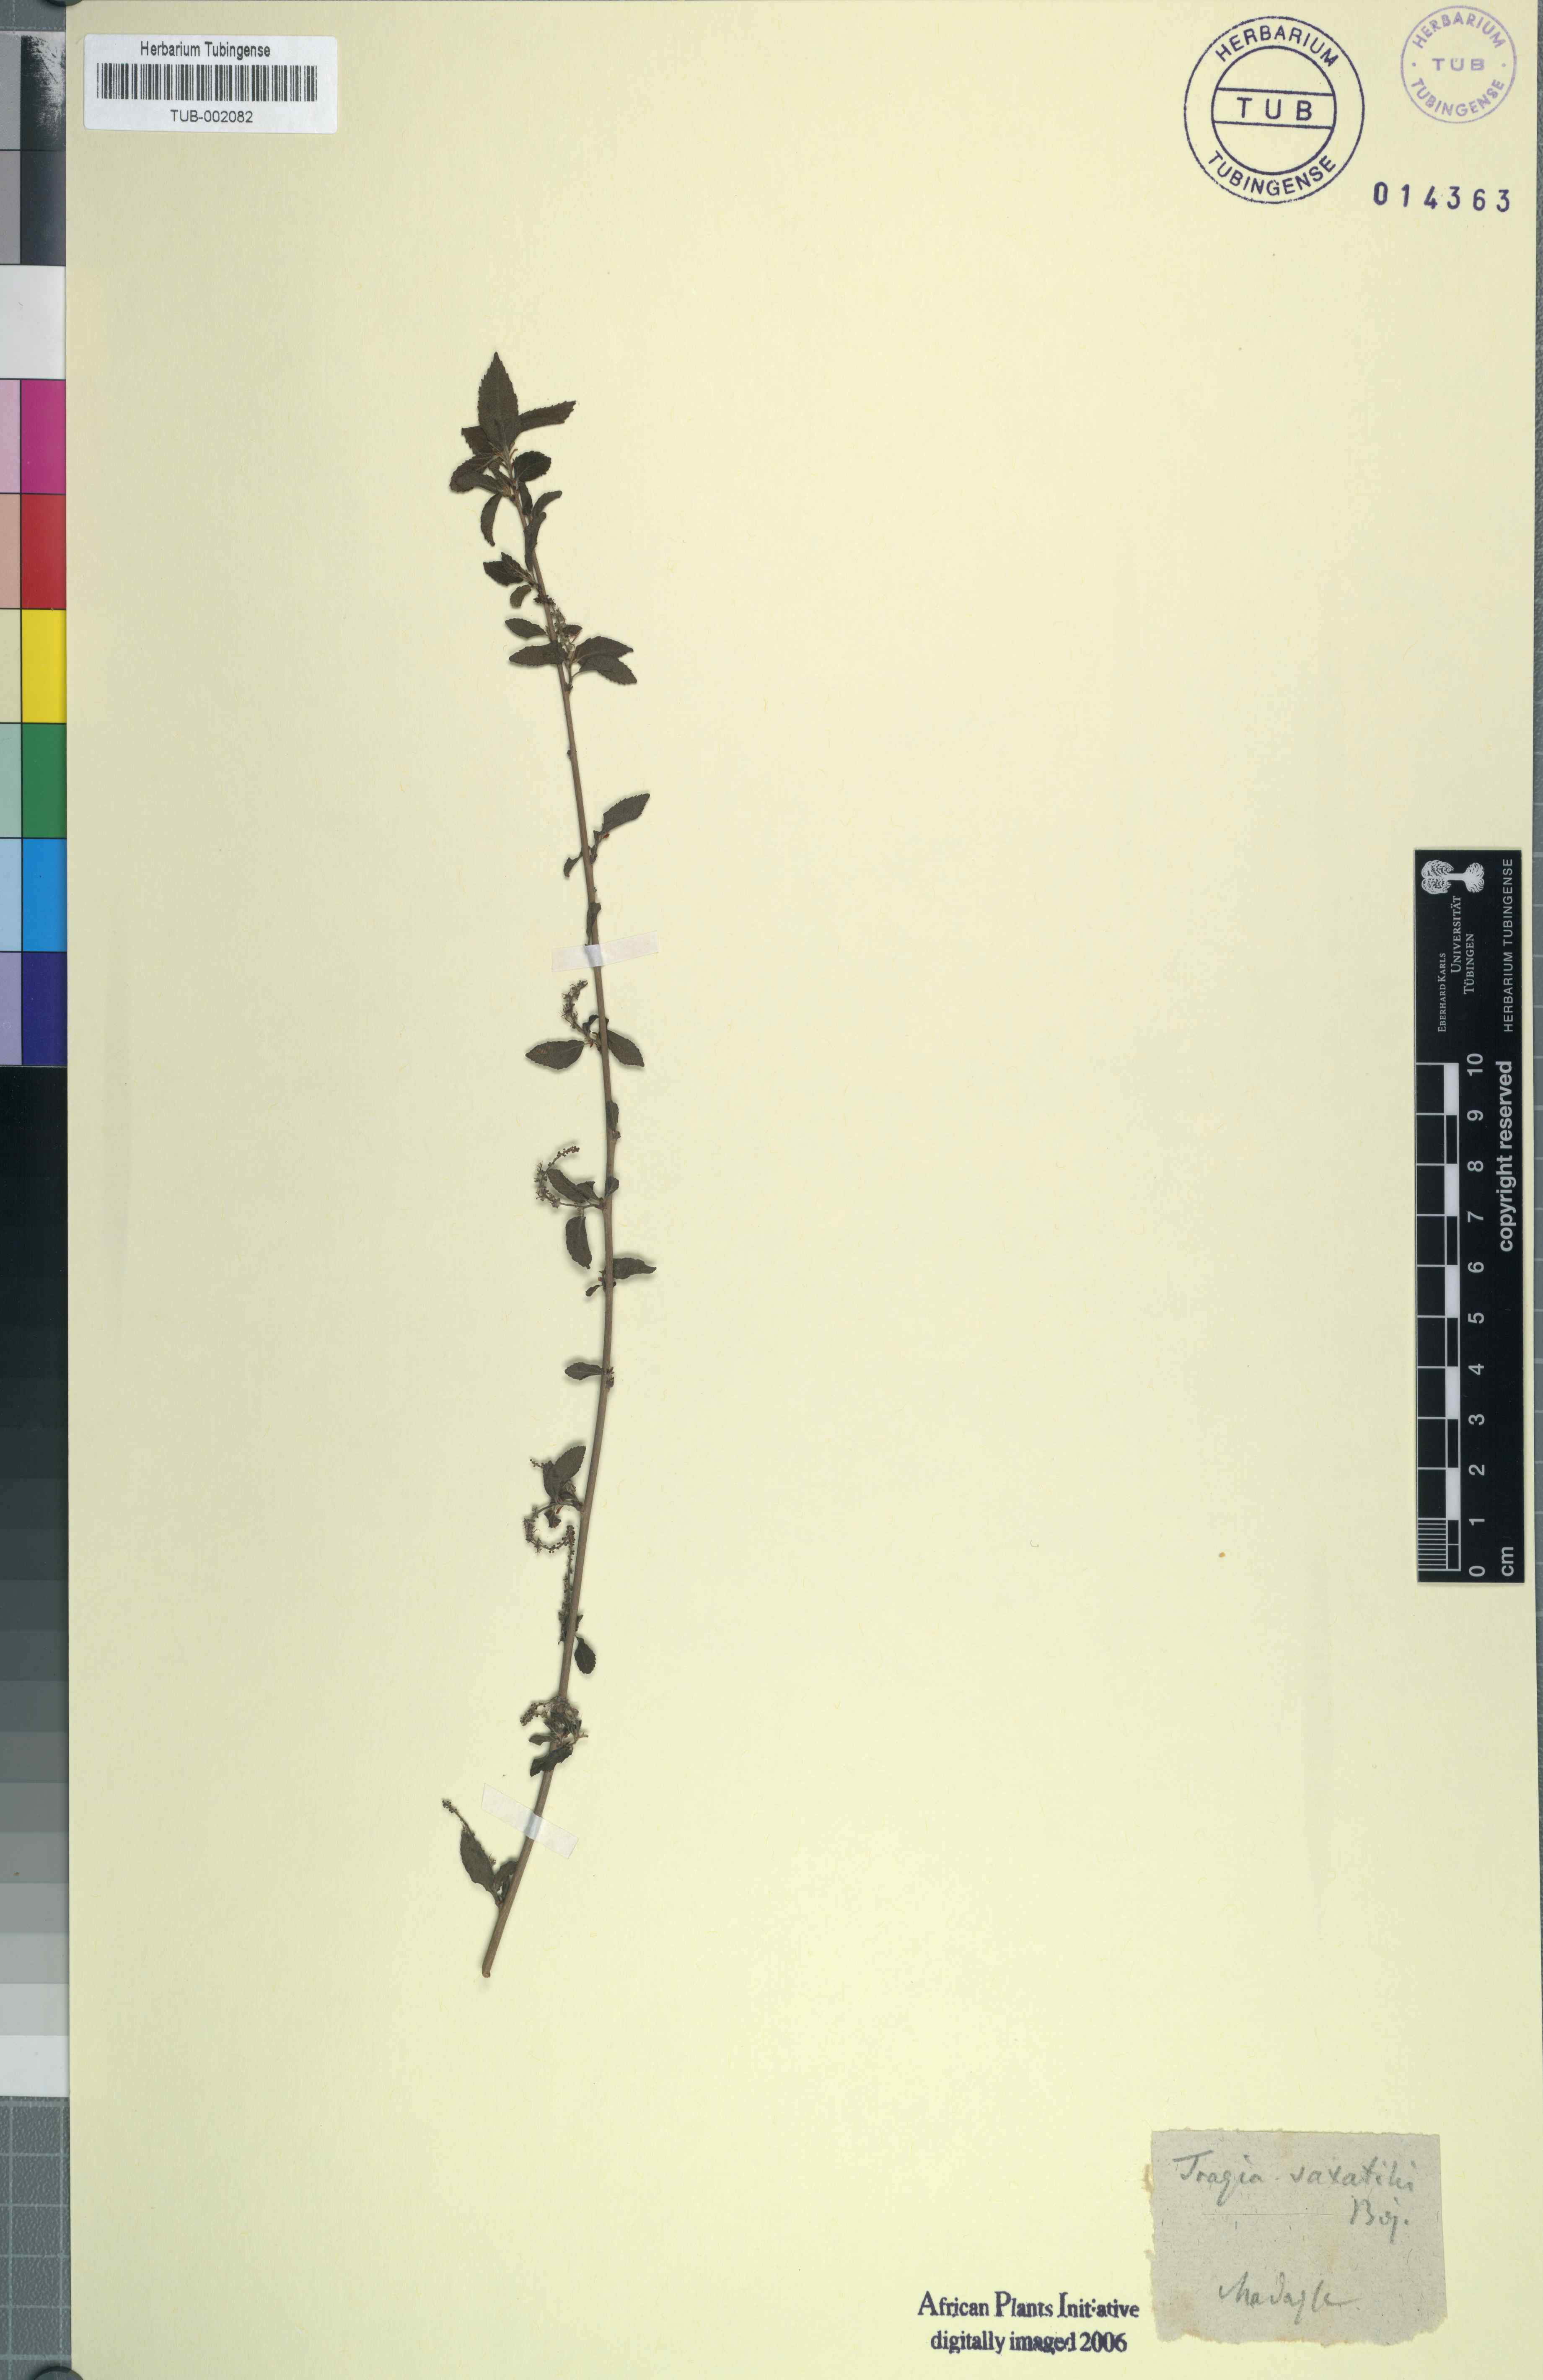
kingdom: Plantae
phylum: Tracheophyta
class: Magnoliopsida
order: Malpighiales
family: Euphorbiaceae
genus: Acalypha
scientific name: Acalypha spachiana
